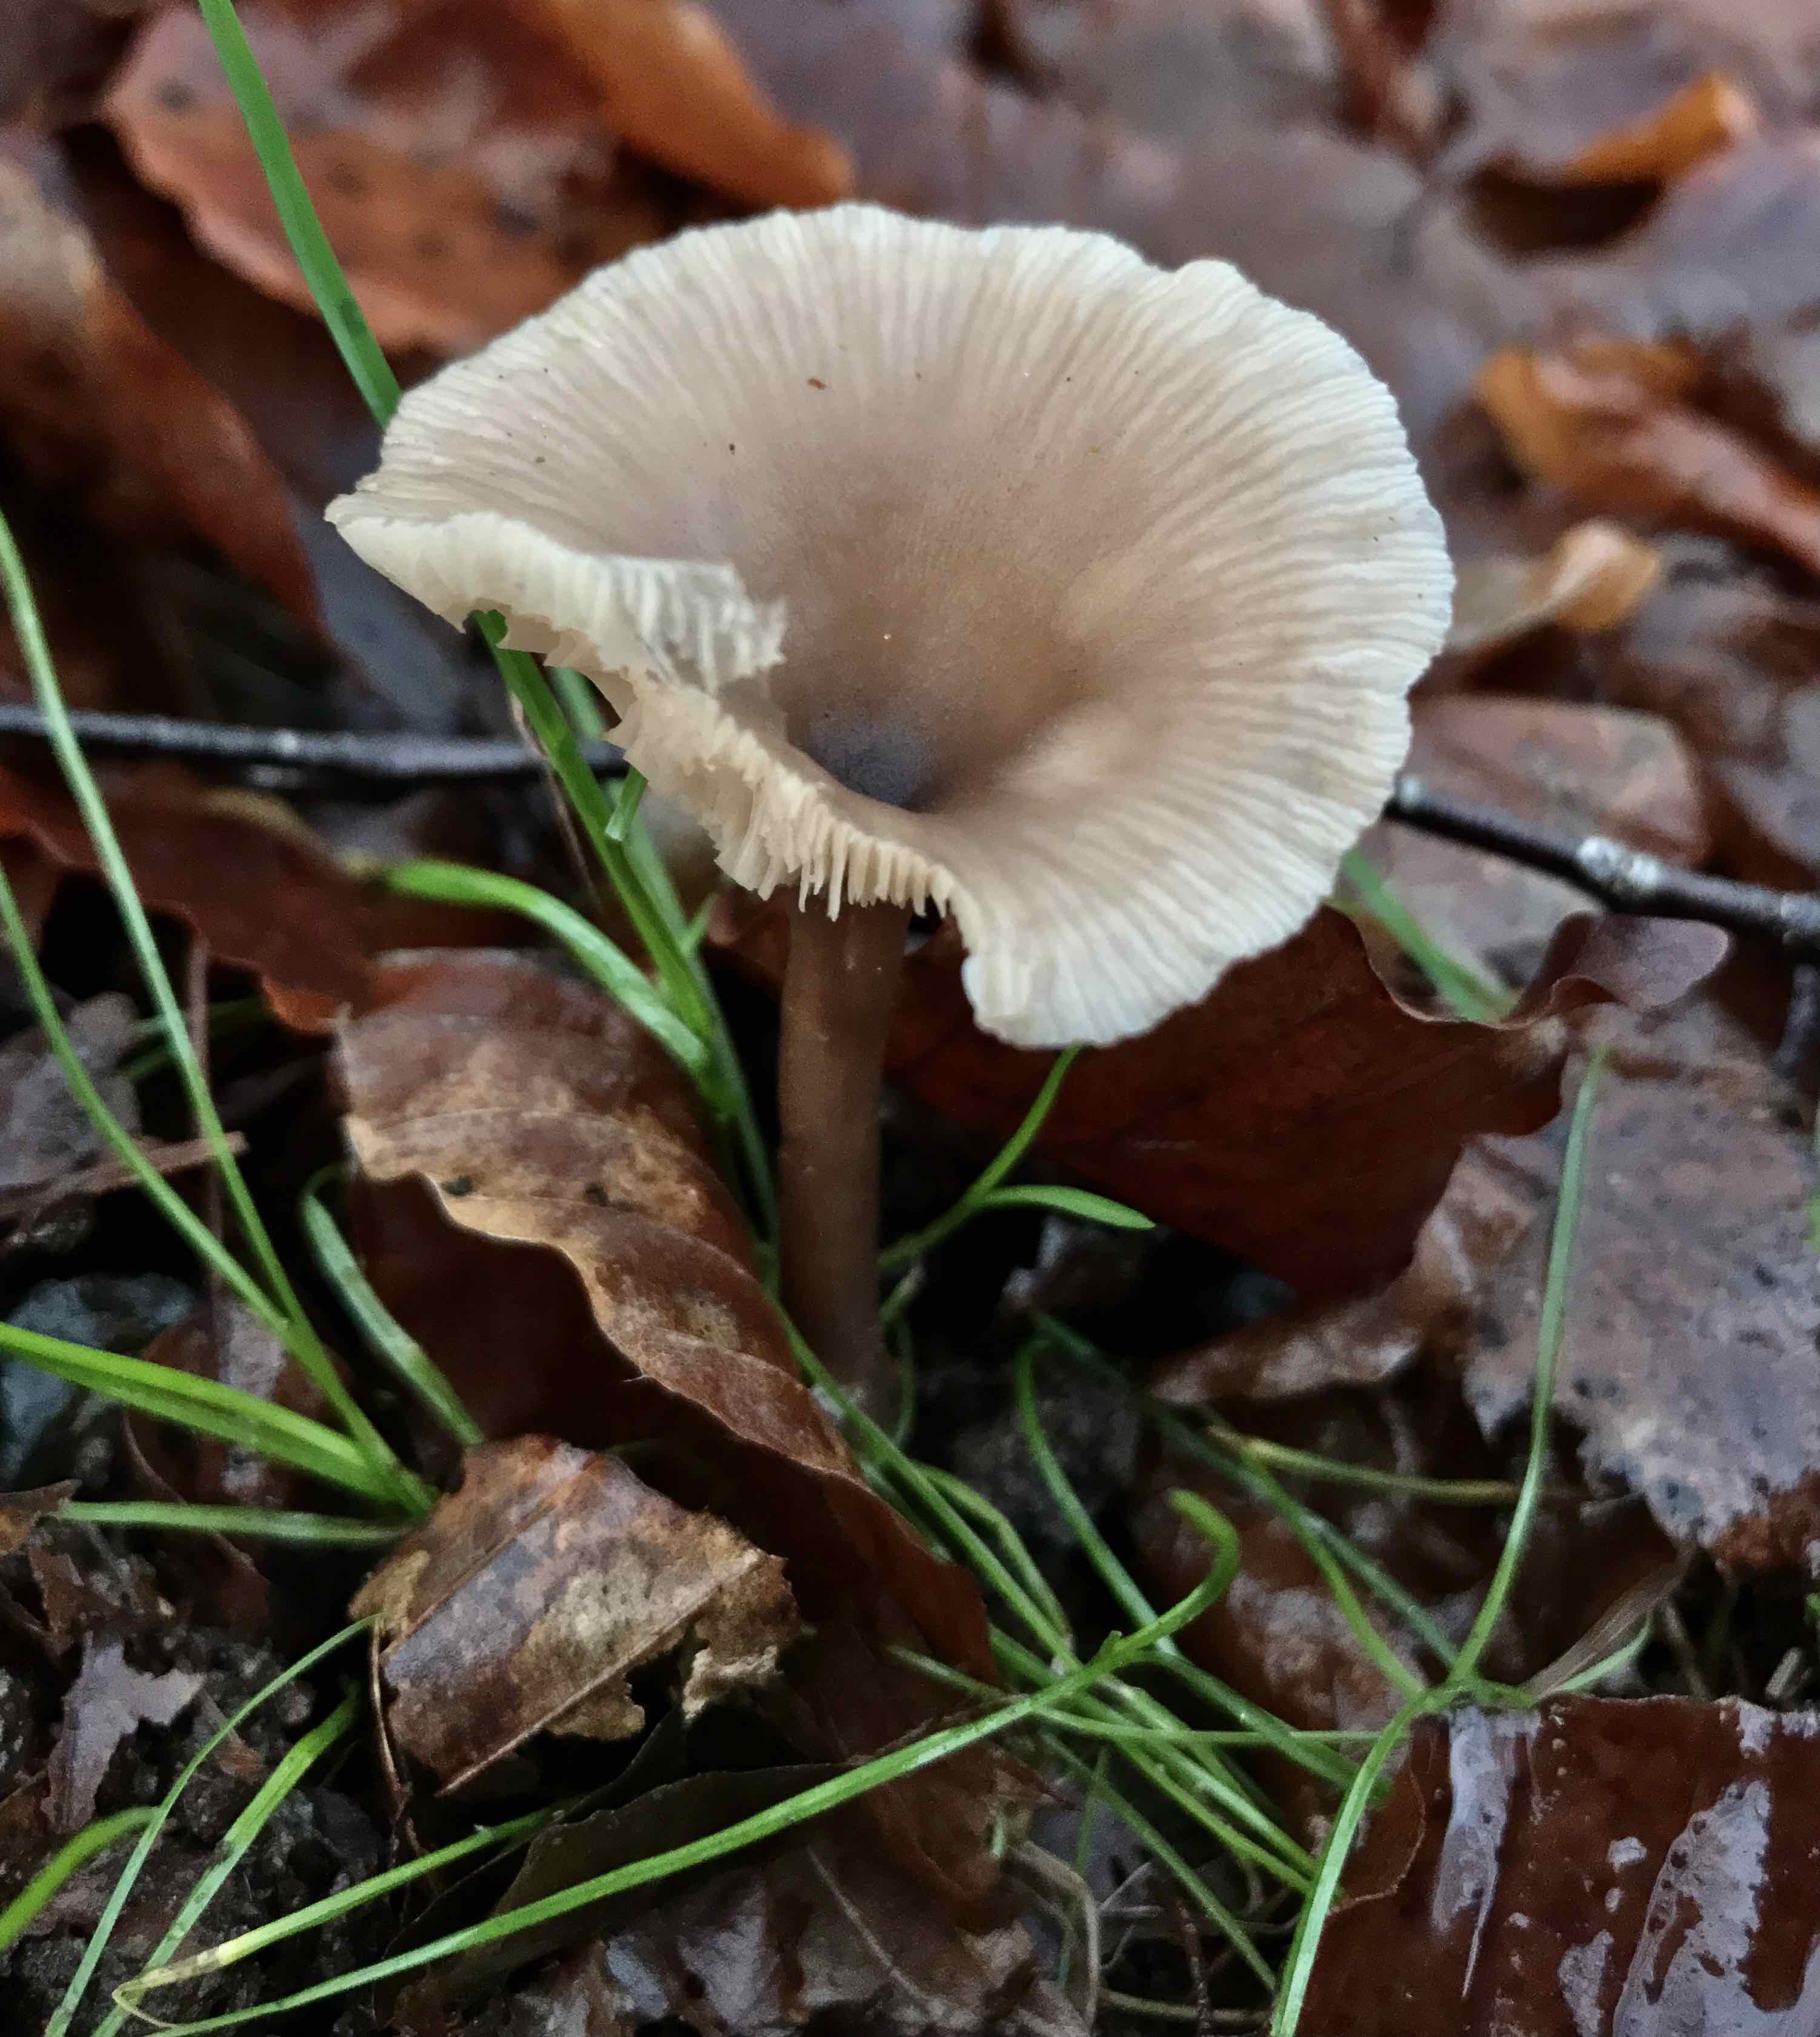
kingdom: Fungi
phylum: Basidiomycota
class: Agaricomycetes
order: Agaricales
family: Pseudoclitocybaceae
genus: Pseudoclitocybe
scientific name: Pseudoclitocybe cyathiformis
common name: almindelig bægertragthat
